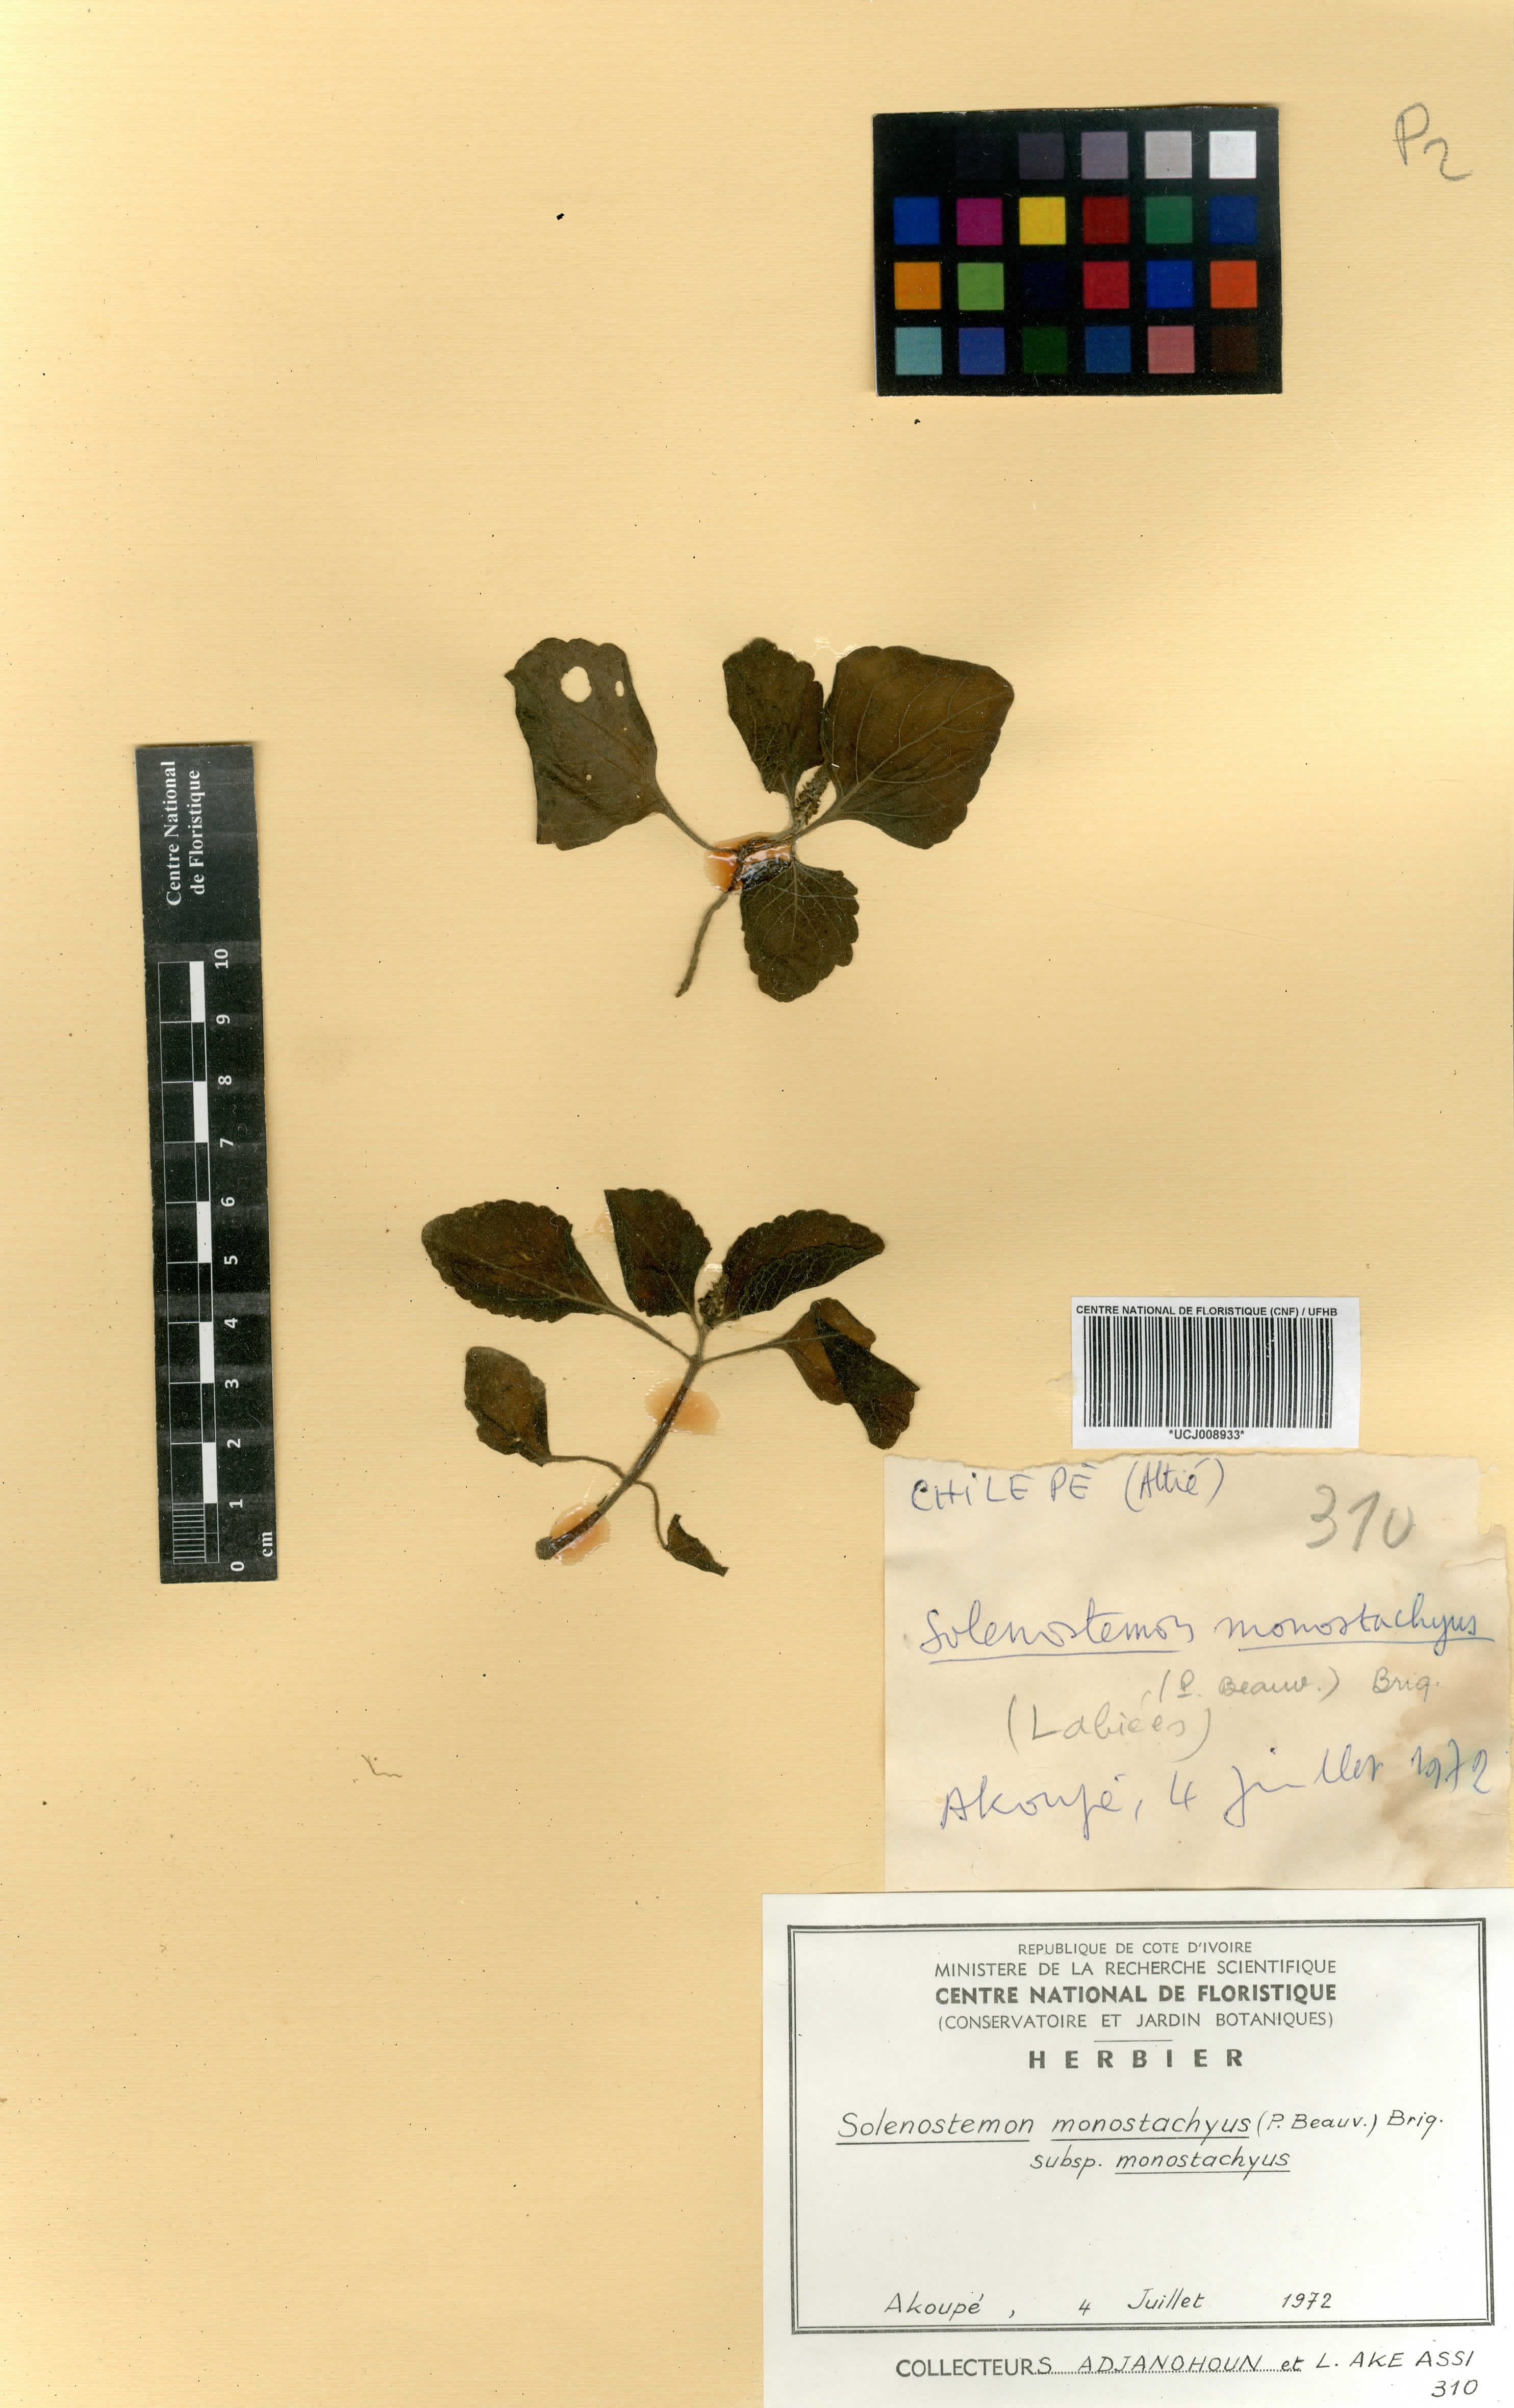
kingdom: Plantae
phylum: Tracheophyta
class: Magnoliopsida
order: Lamiales
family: Lamiaceae
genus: Coleus
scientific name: Coleus monostachyus
